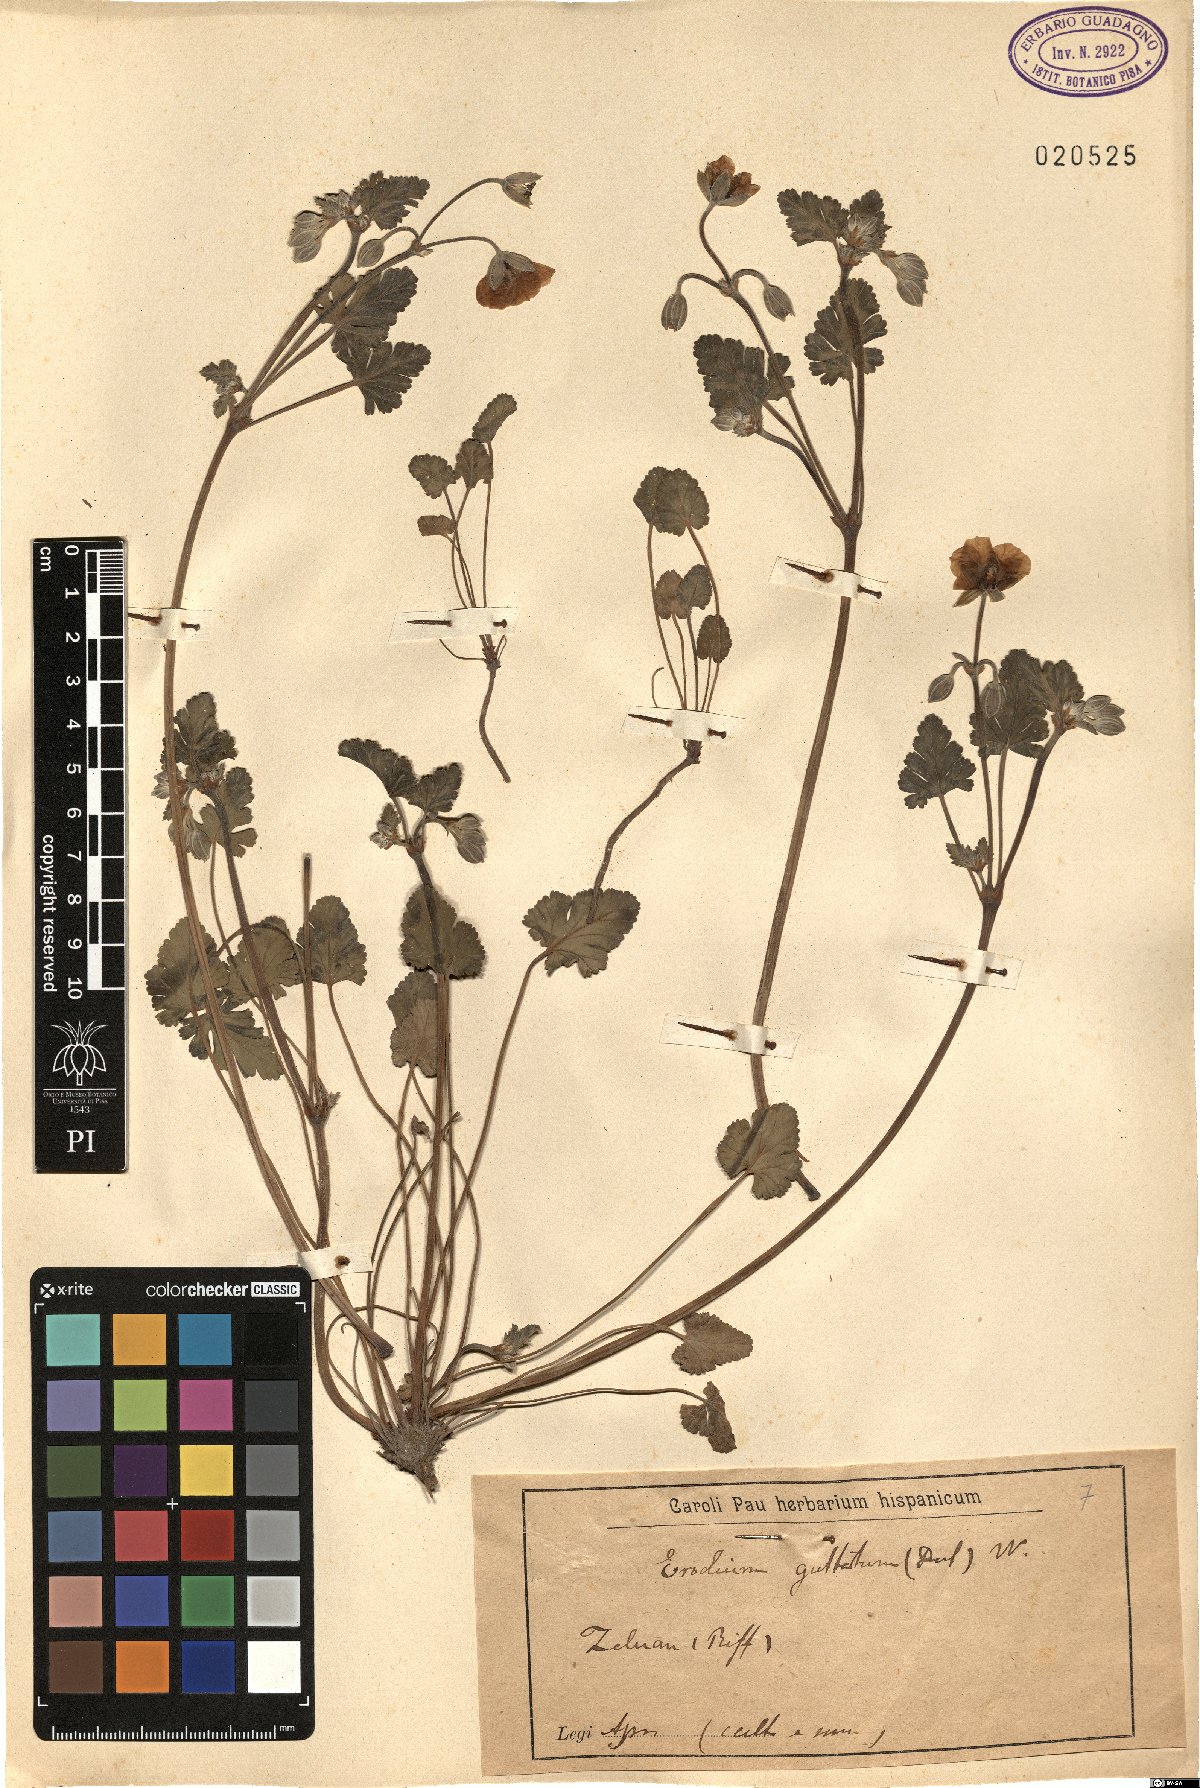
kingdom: Plantae
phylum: Tracheophyta
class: Magnoliopsida
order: Geraniales
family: Geraniaceae
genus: Erodium
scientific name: Erodium guttatum
